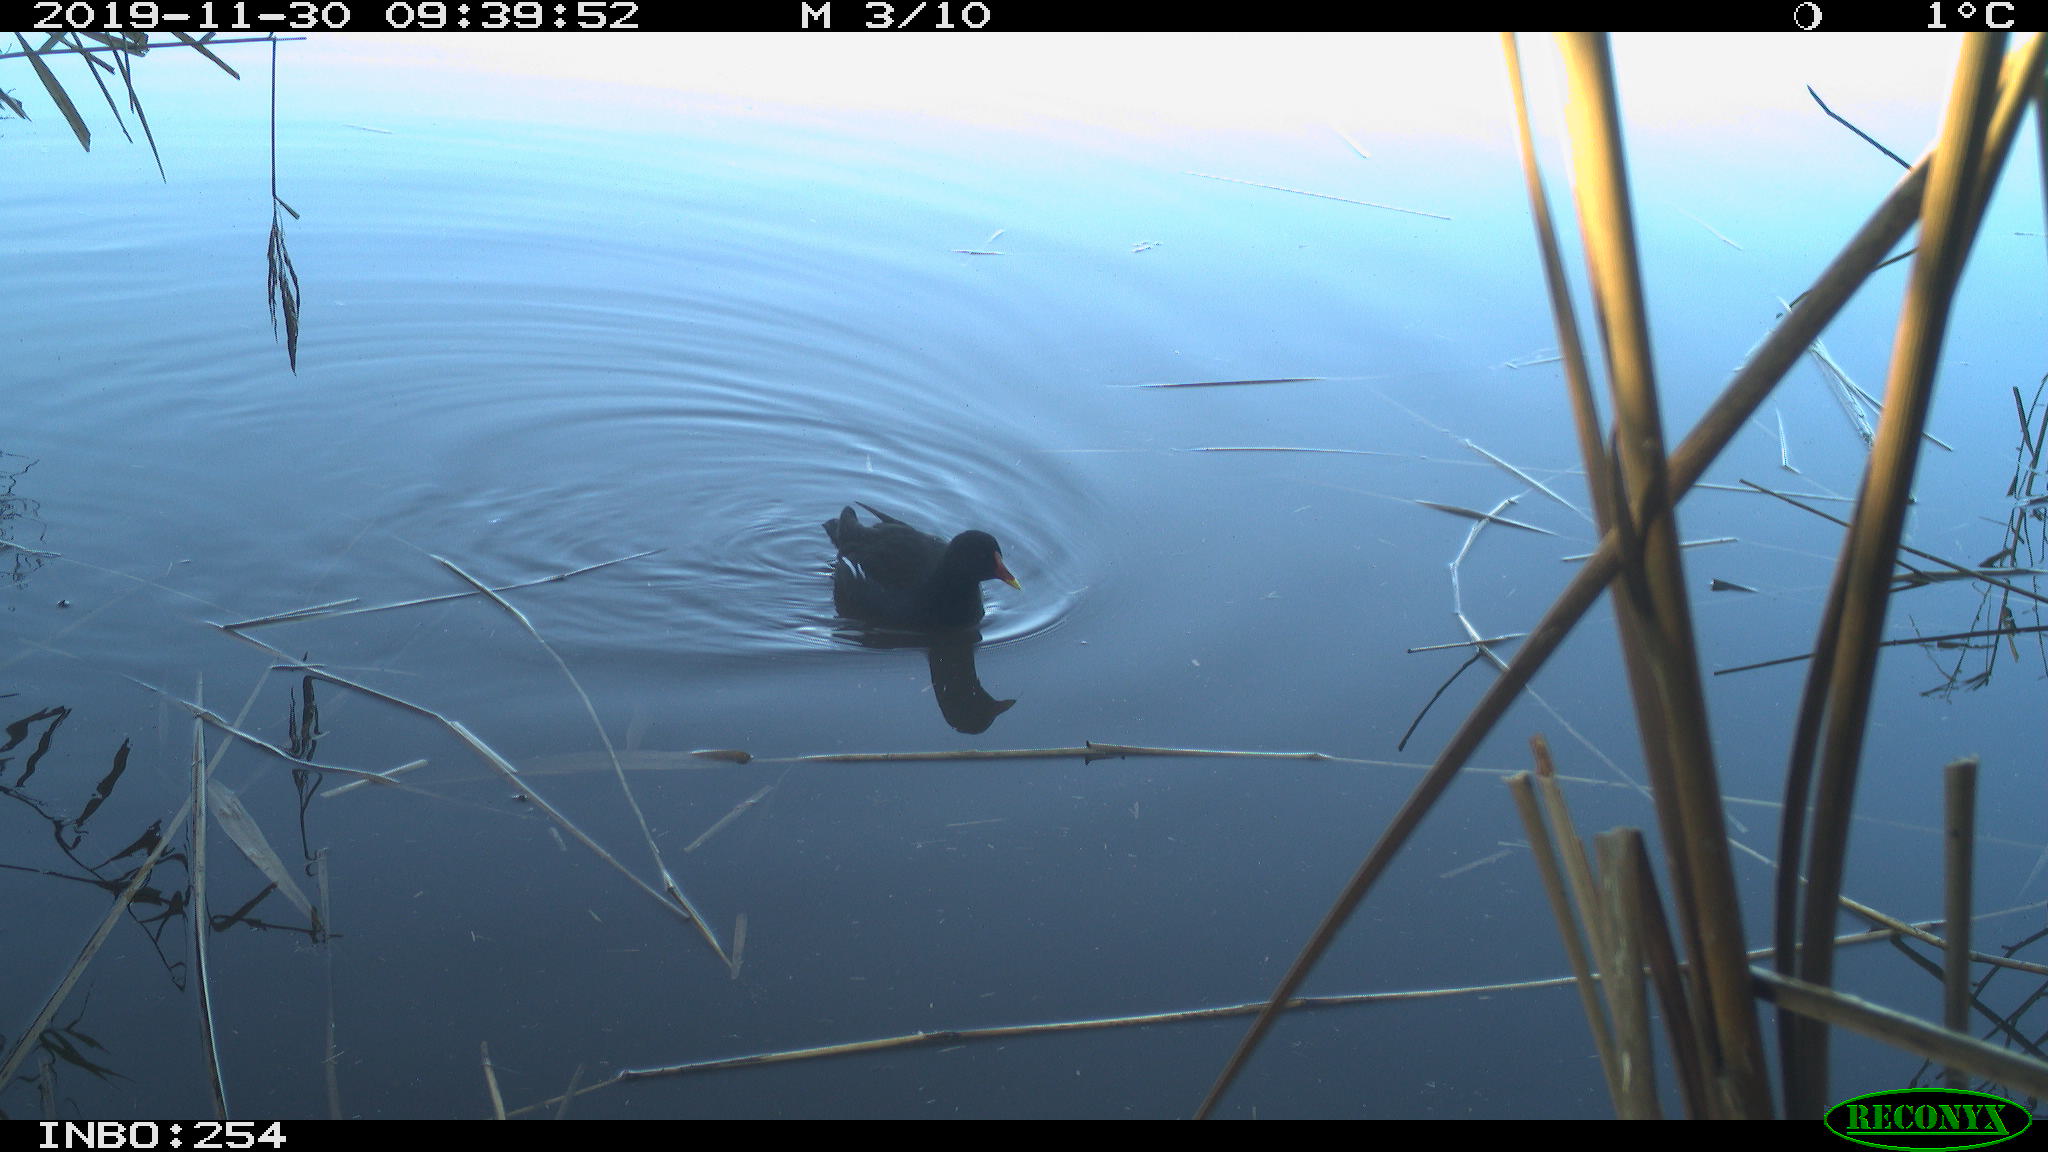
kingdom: Animalia
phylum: Chordata
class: Aves
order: Gruiformes
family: Rallidae
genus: Gallinula
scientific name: Gallinula chloropus
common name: Common moorhen
